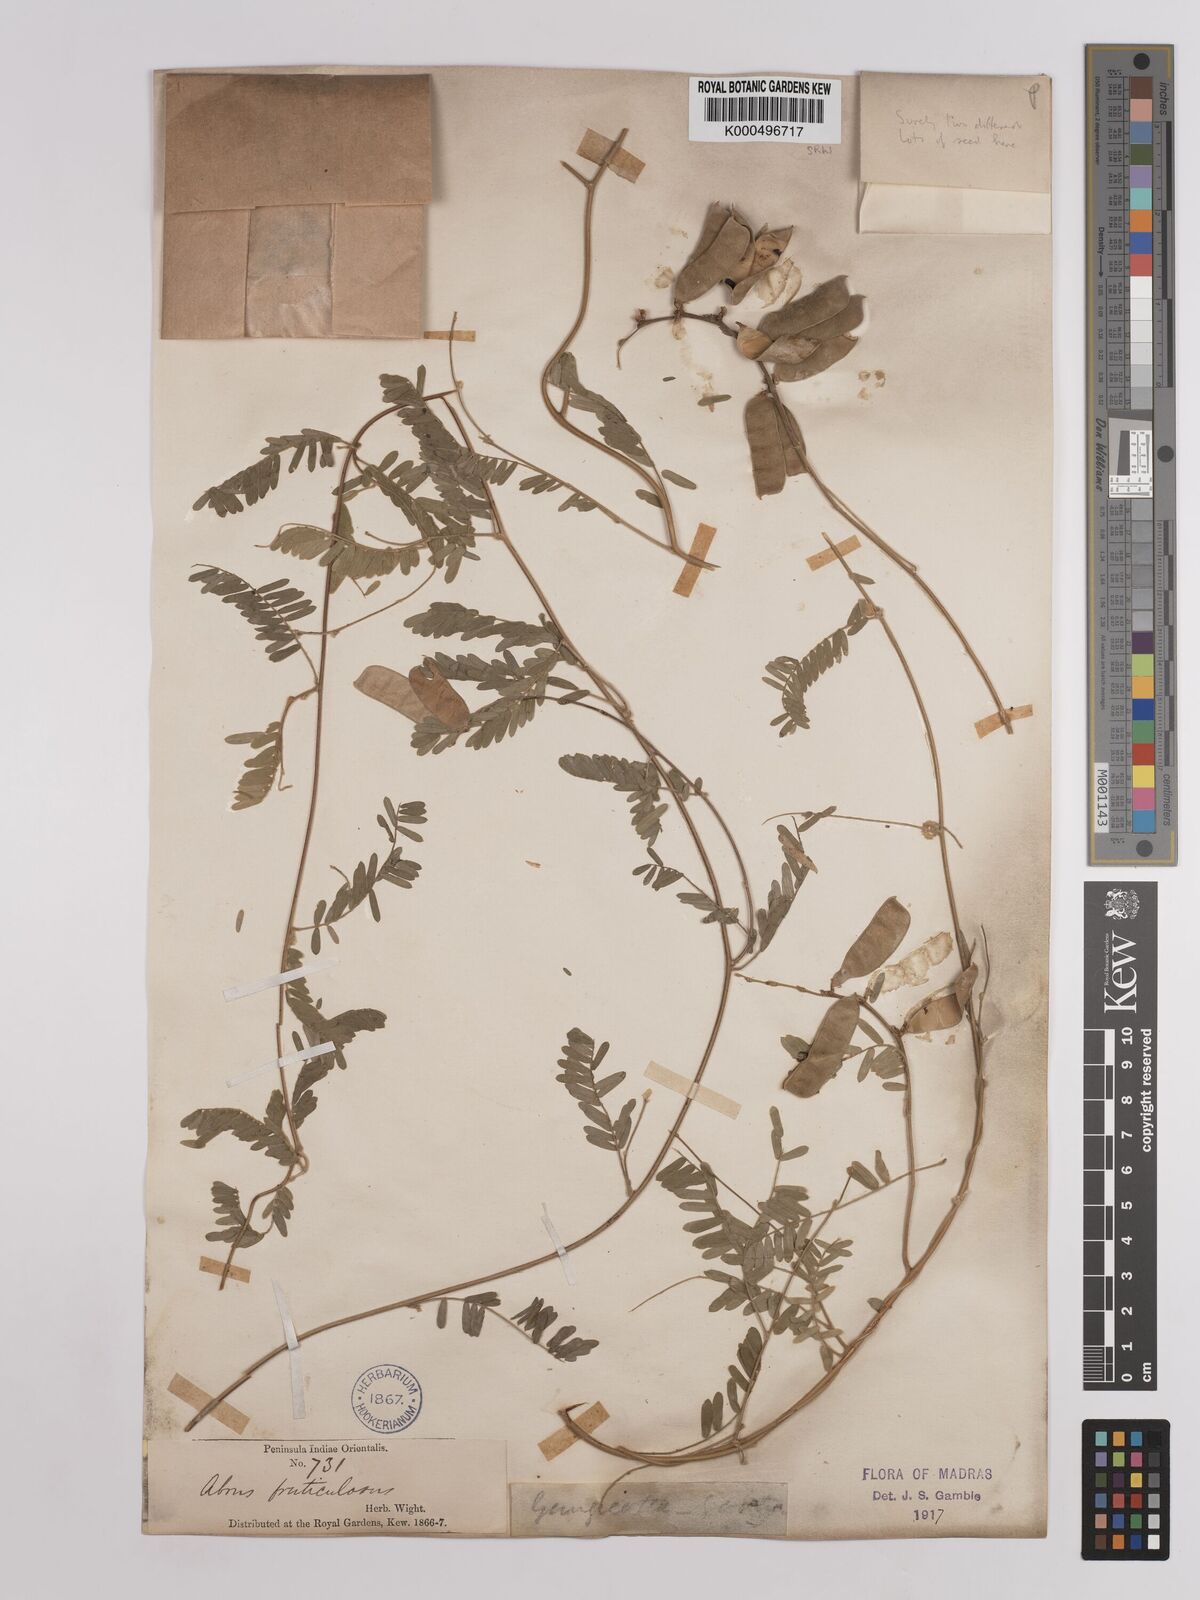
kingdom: Plantae
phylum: Tracheophyta
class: Magnoliopsida
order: Fabales
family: Fabaceae
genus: Abrus
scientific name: Abrus fruticulosus
